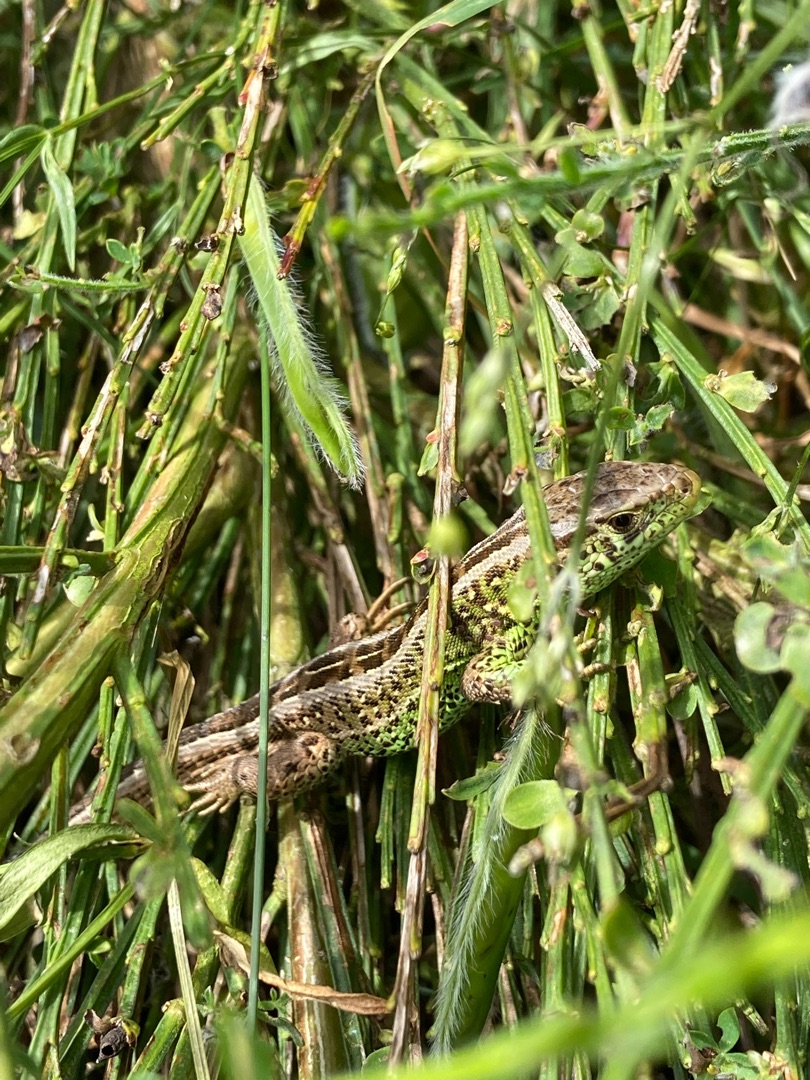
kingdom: Animalia
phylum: Chordata
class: Squamata
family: Lacertidae
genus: Lacerta
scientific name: Lacerta agilis
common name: Markfirben
